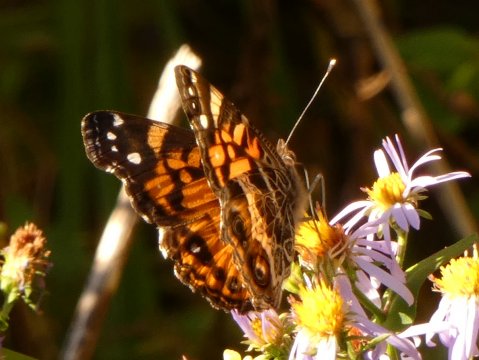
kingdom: Animalia
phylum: Arthropoda
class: Insecta
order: Lepidoptera
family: Nymphalidae
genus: Vanessa
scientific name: Vanessa virginiensis
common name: American Lady
